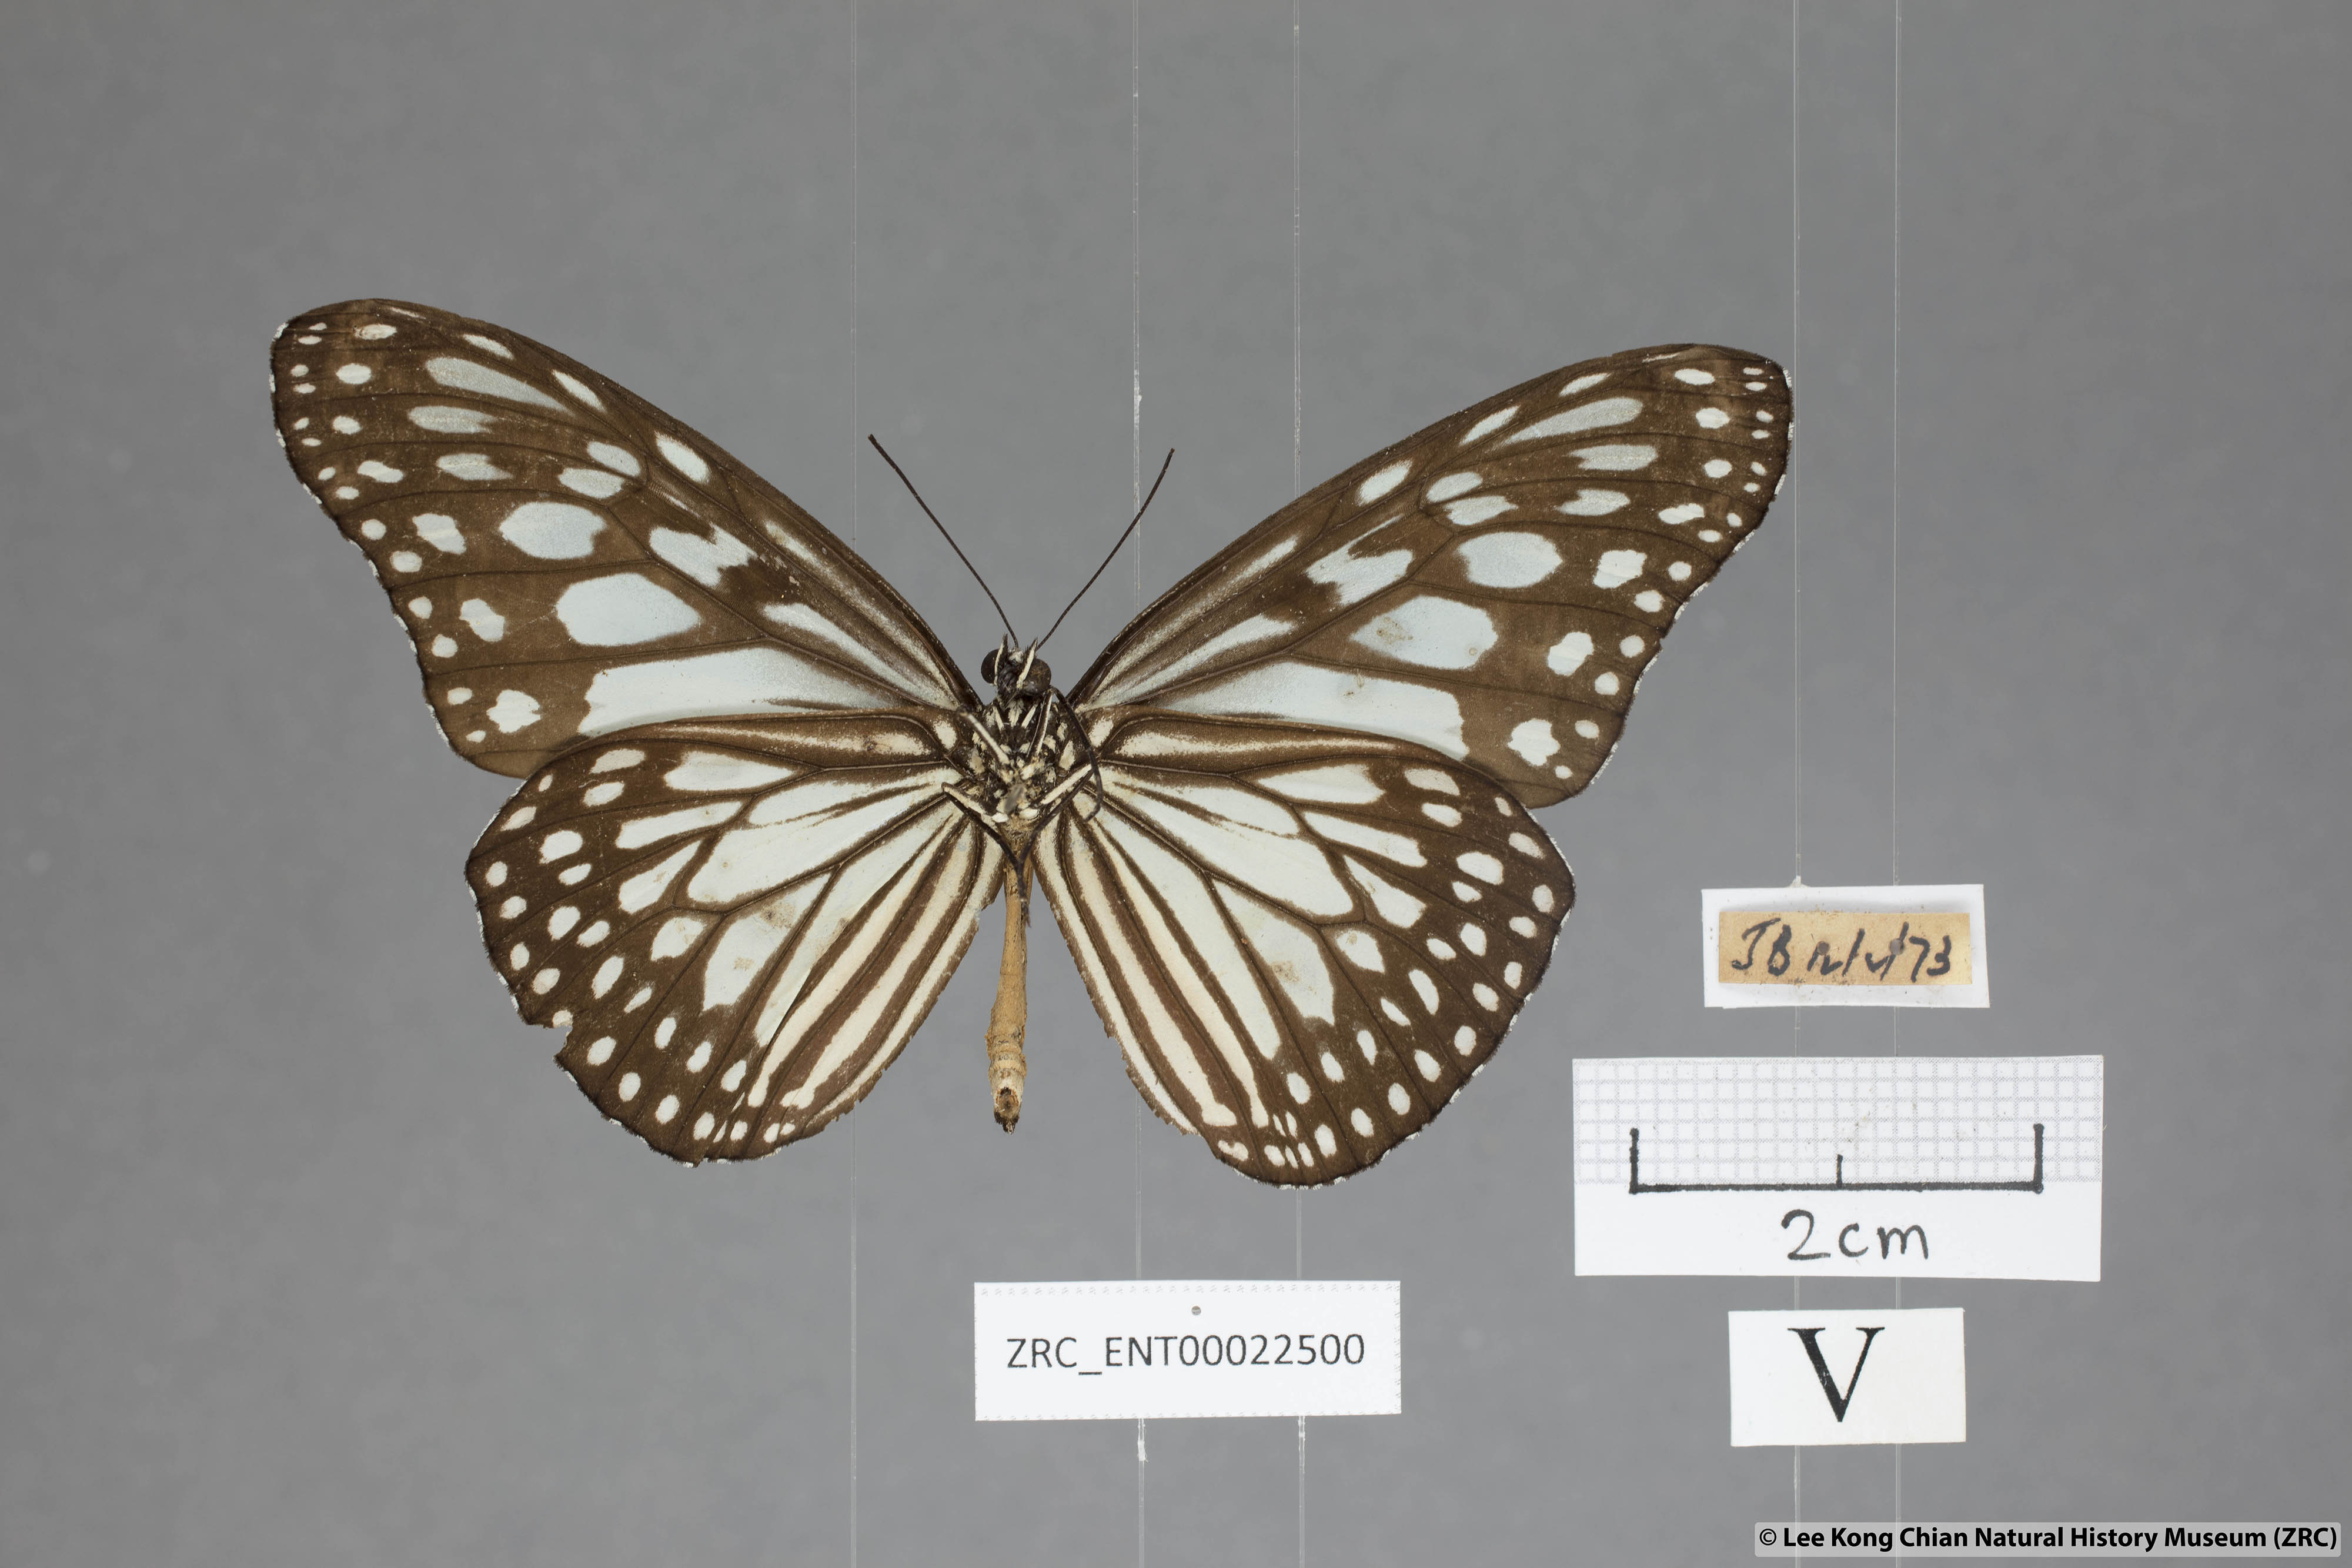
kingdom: Animalia
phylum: Arthropoda
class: Insecta
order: Lepidoptera
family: Nymphalidae
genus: Ideopsis
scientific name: Ideopsis juventa
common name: Grey glassy tiger
